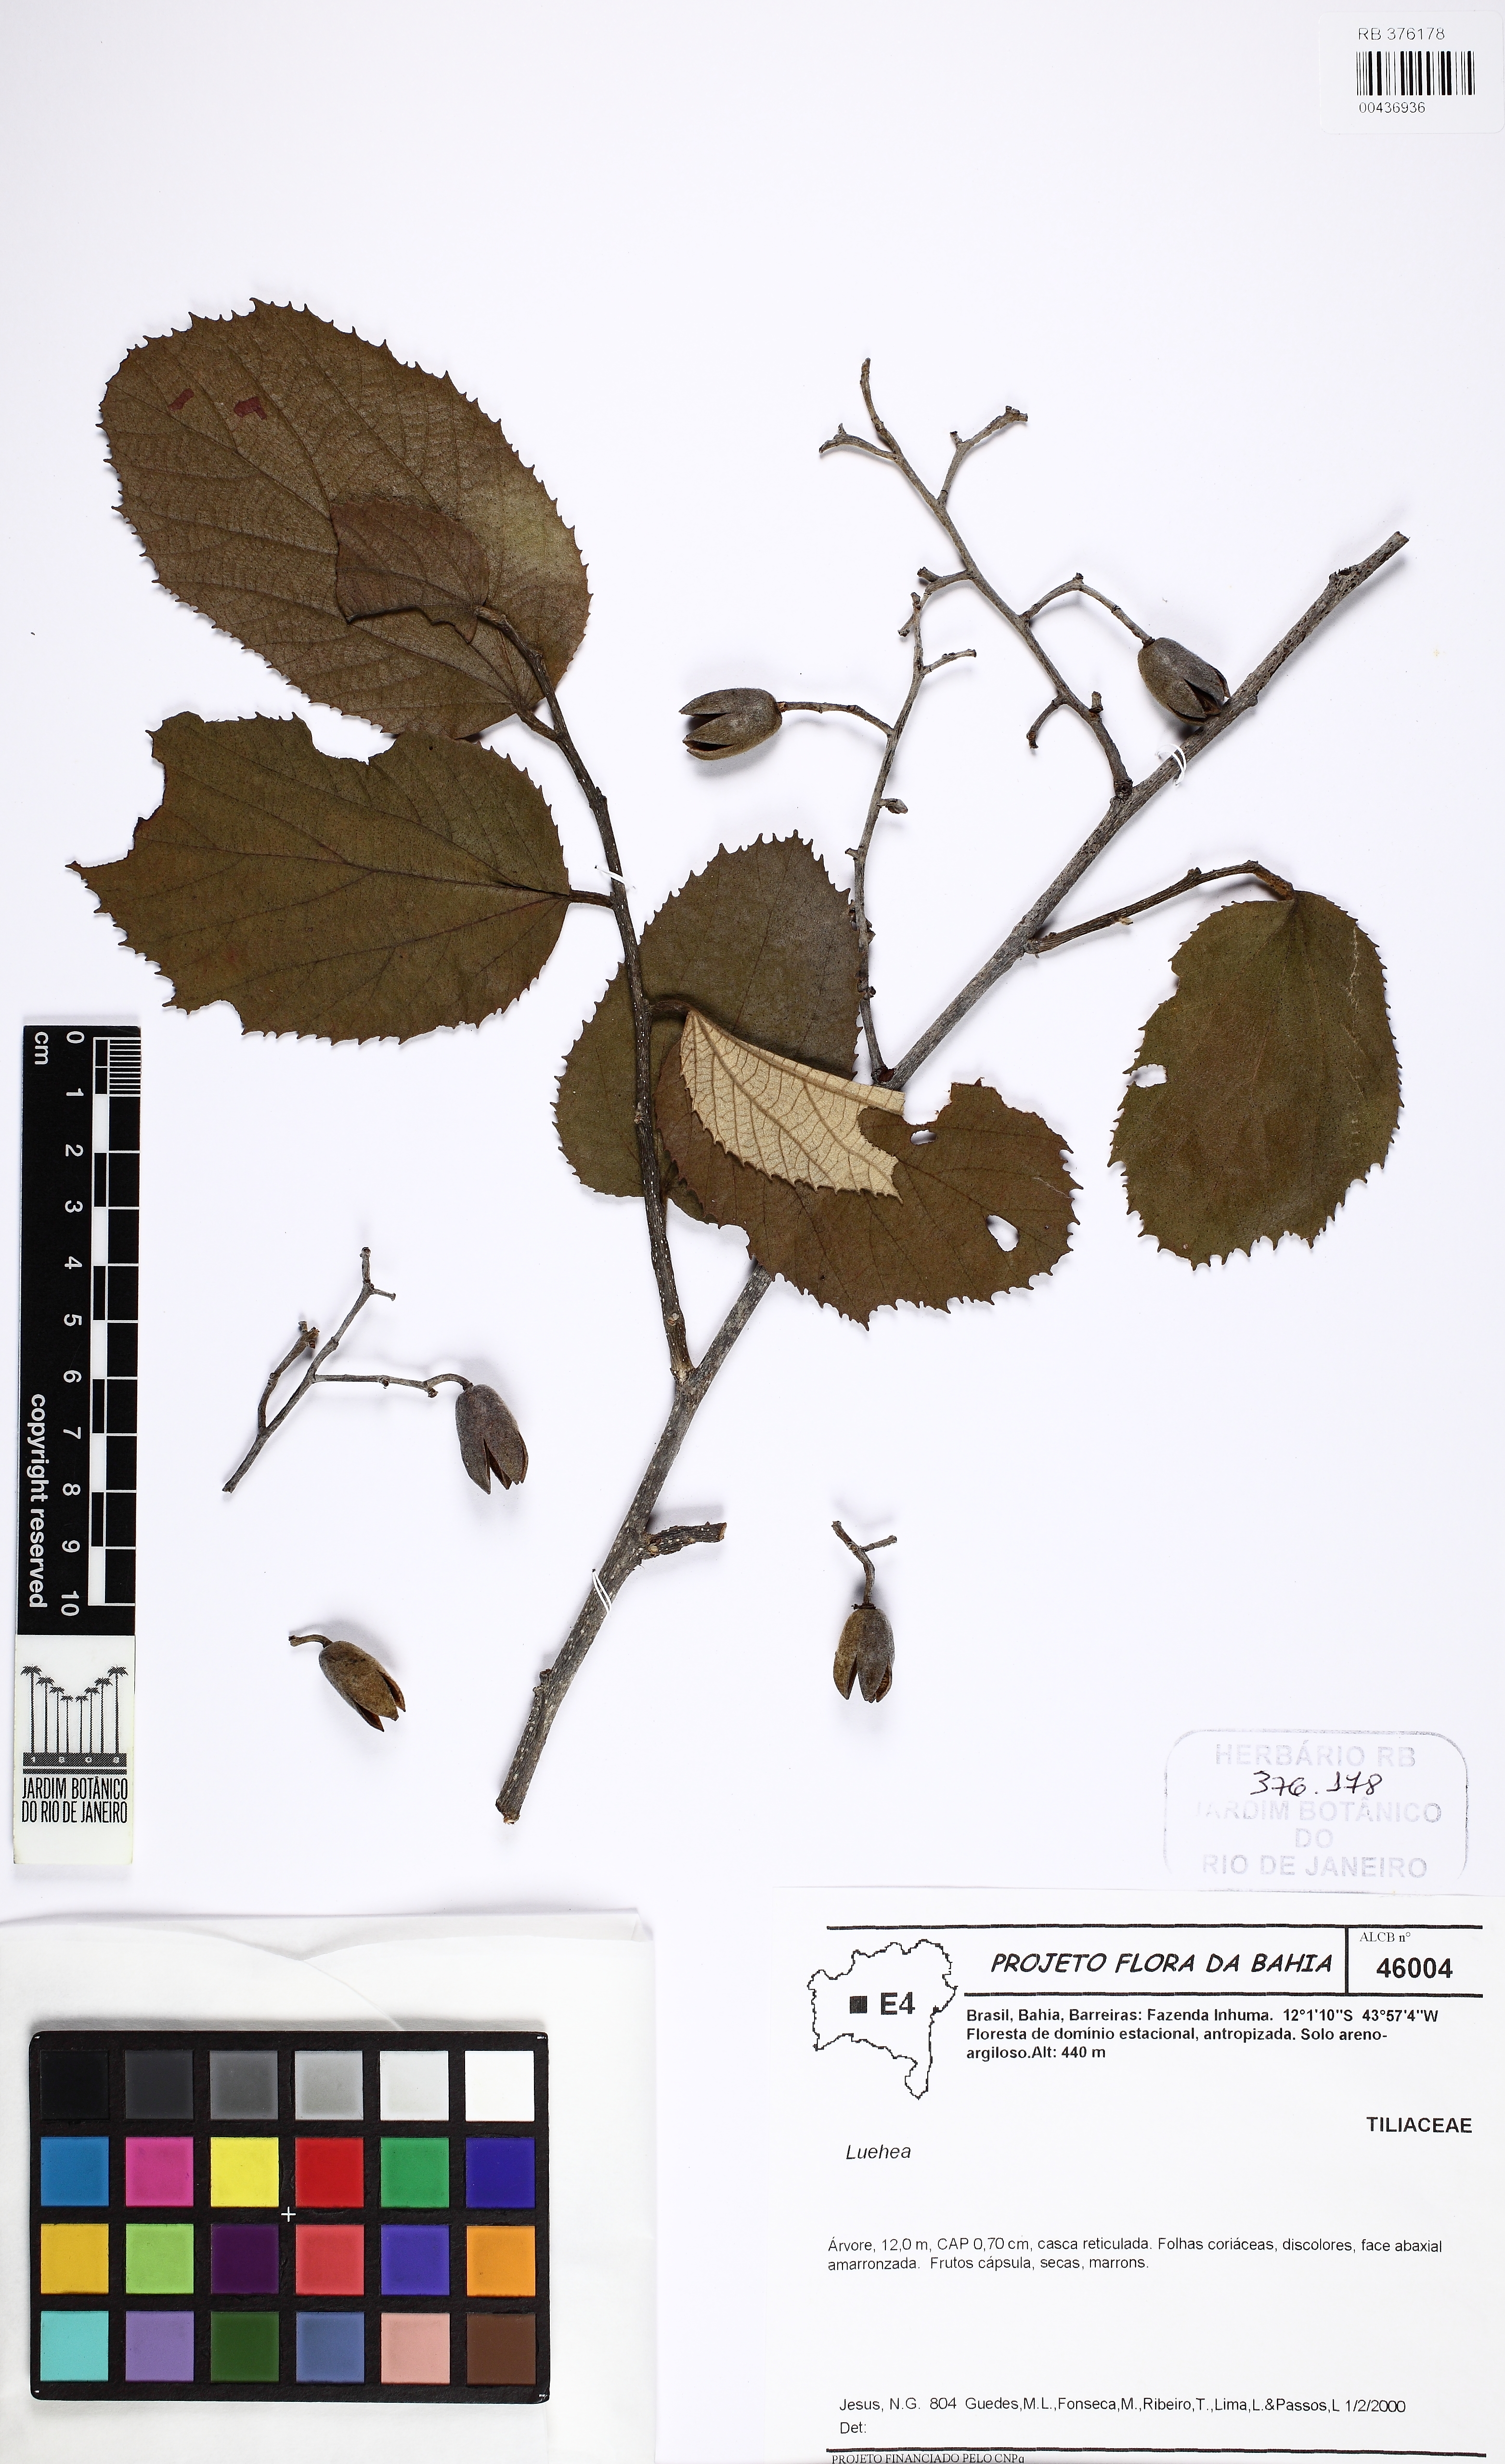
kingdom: Plantae
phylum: Tracheophyta
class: Magnoliopsida
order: Malvales
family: Malvaceae
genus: Luehea
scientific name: Luehea
